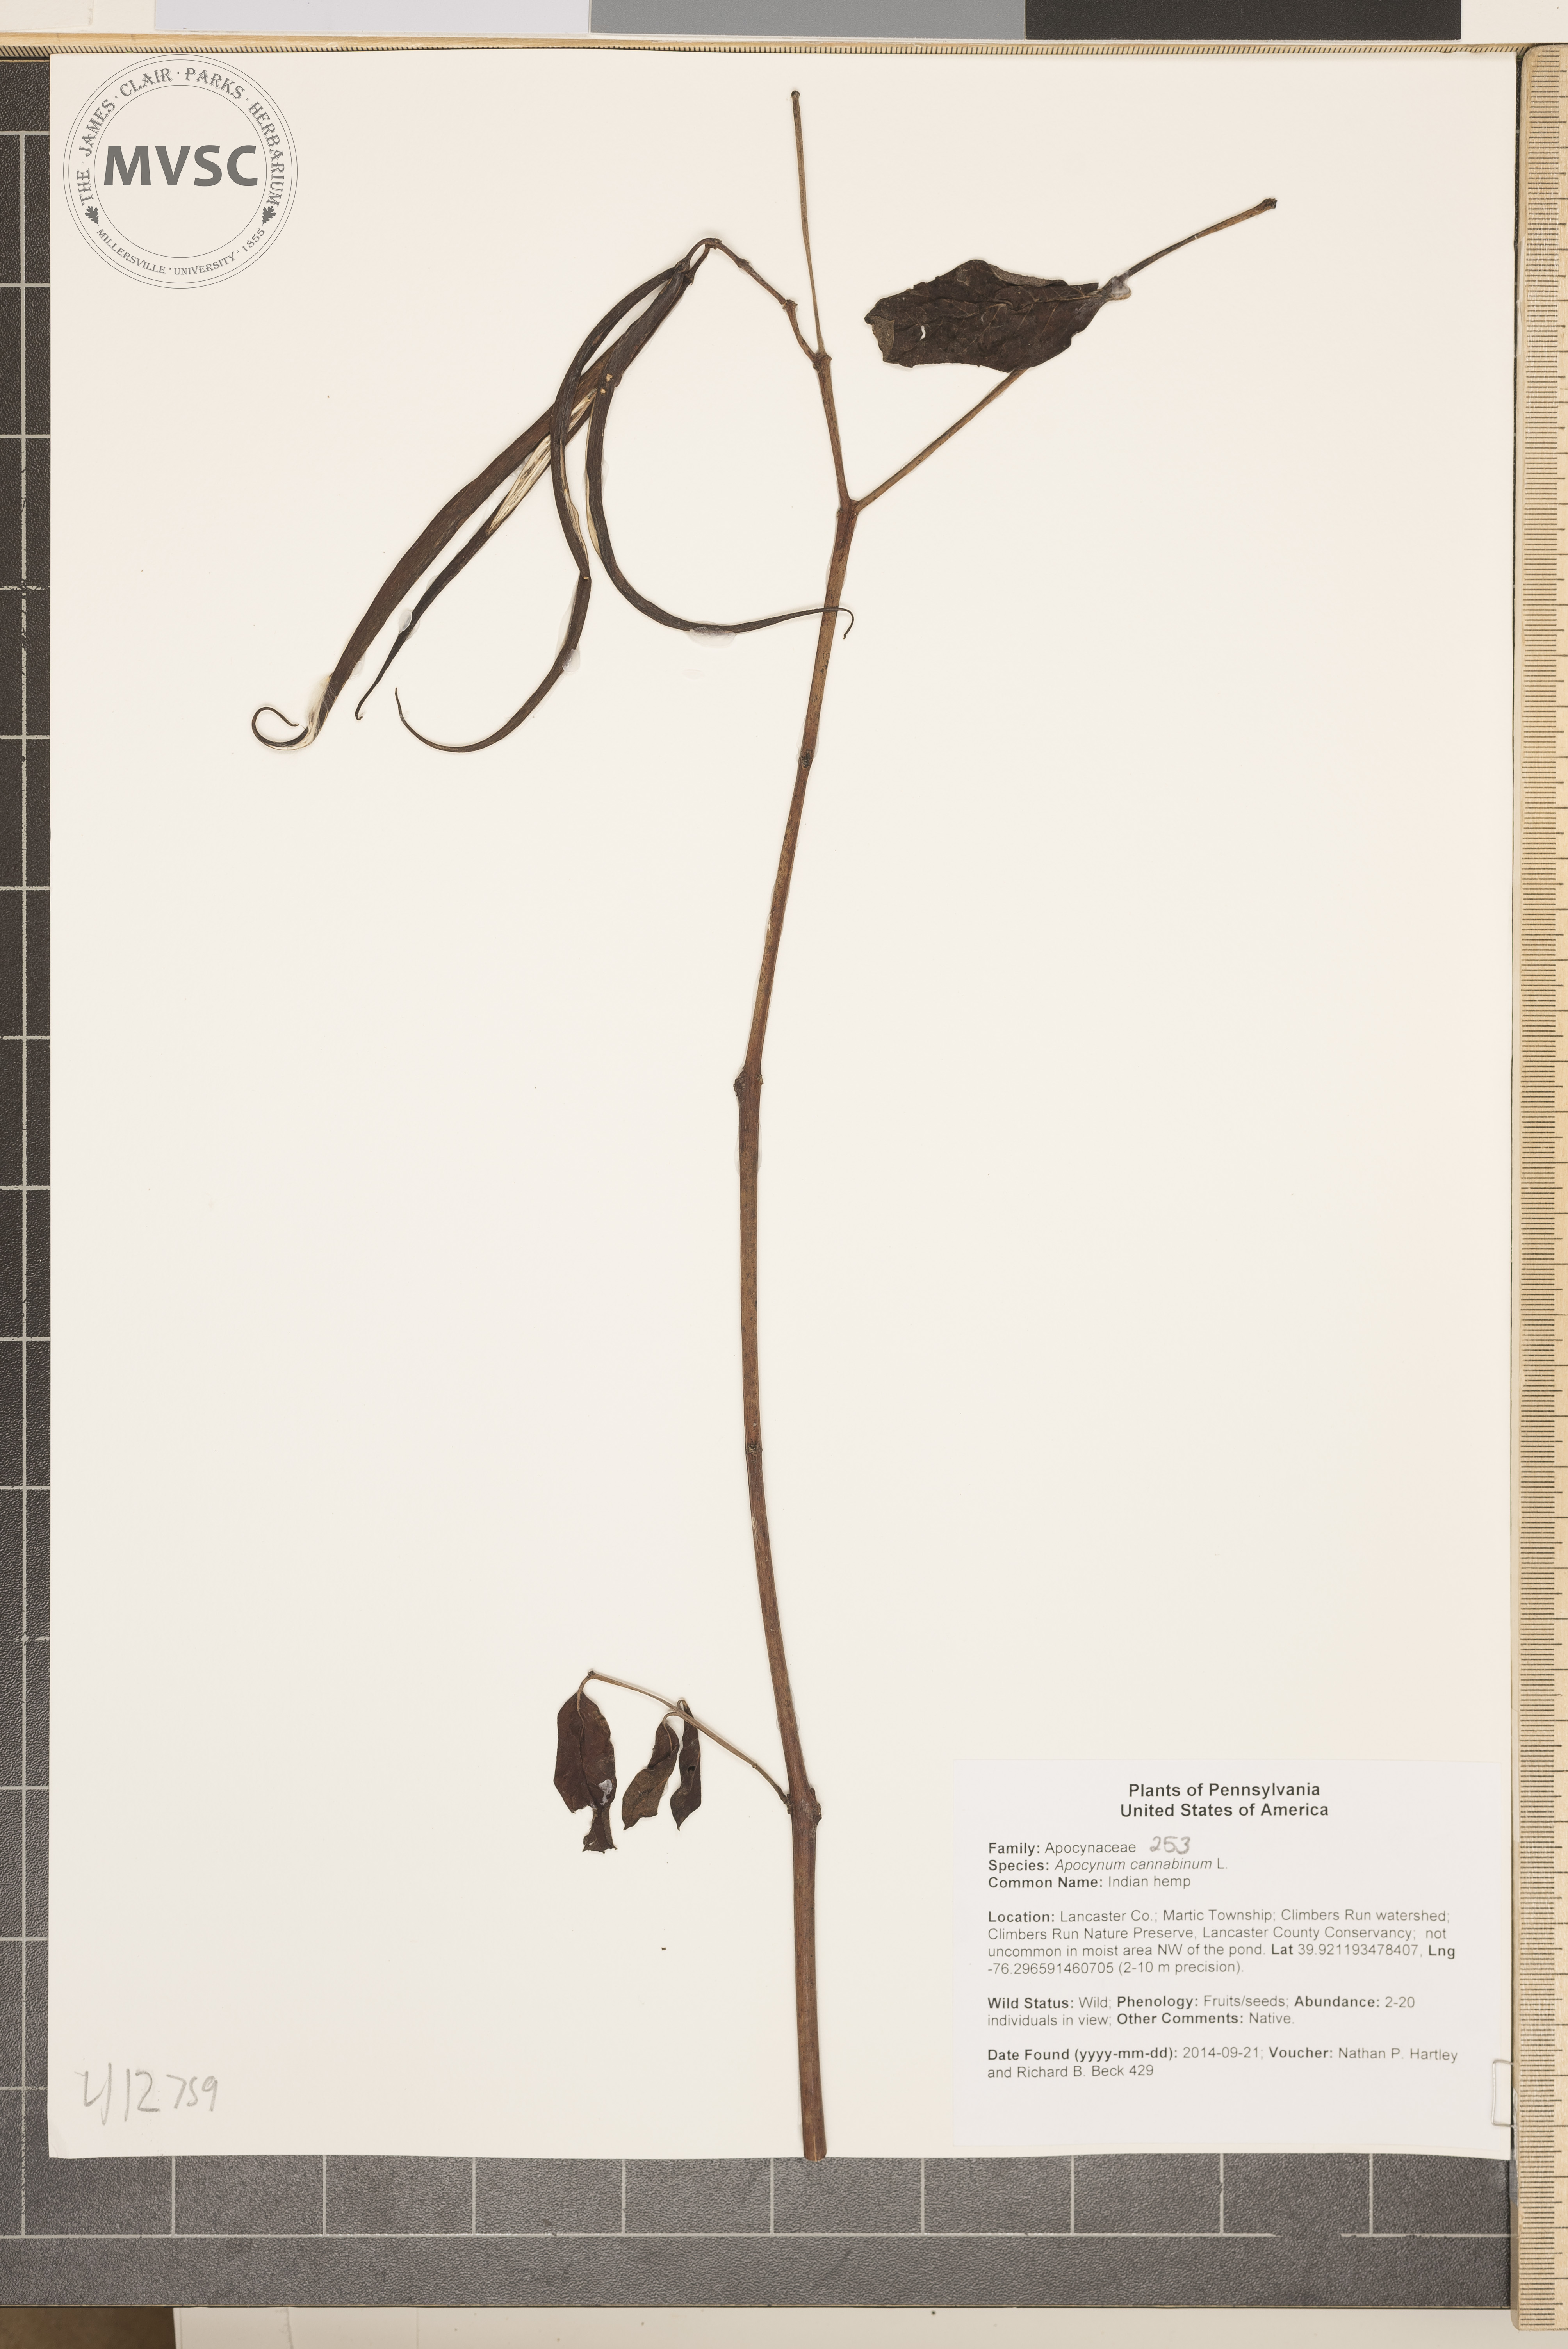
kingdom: Plantae
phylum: Tracheophyta
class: Magnoliopsida
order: Gentianales
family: Apocynaceae
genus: Apocynum
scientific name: Apocynum cannabinum
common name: Indian hemp
